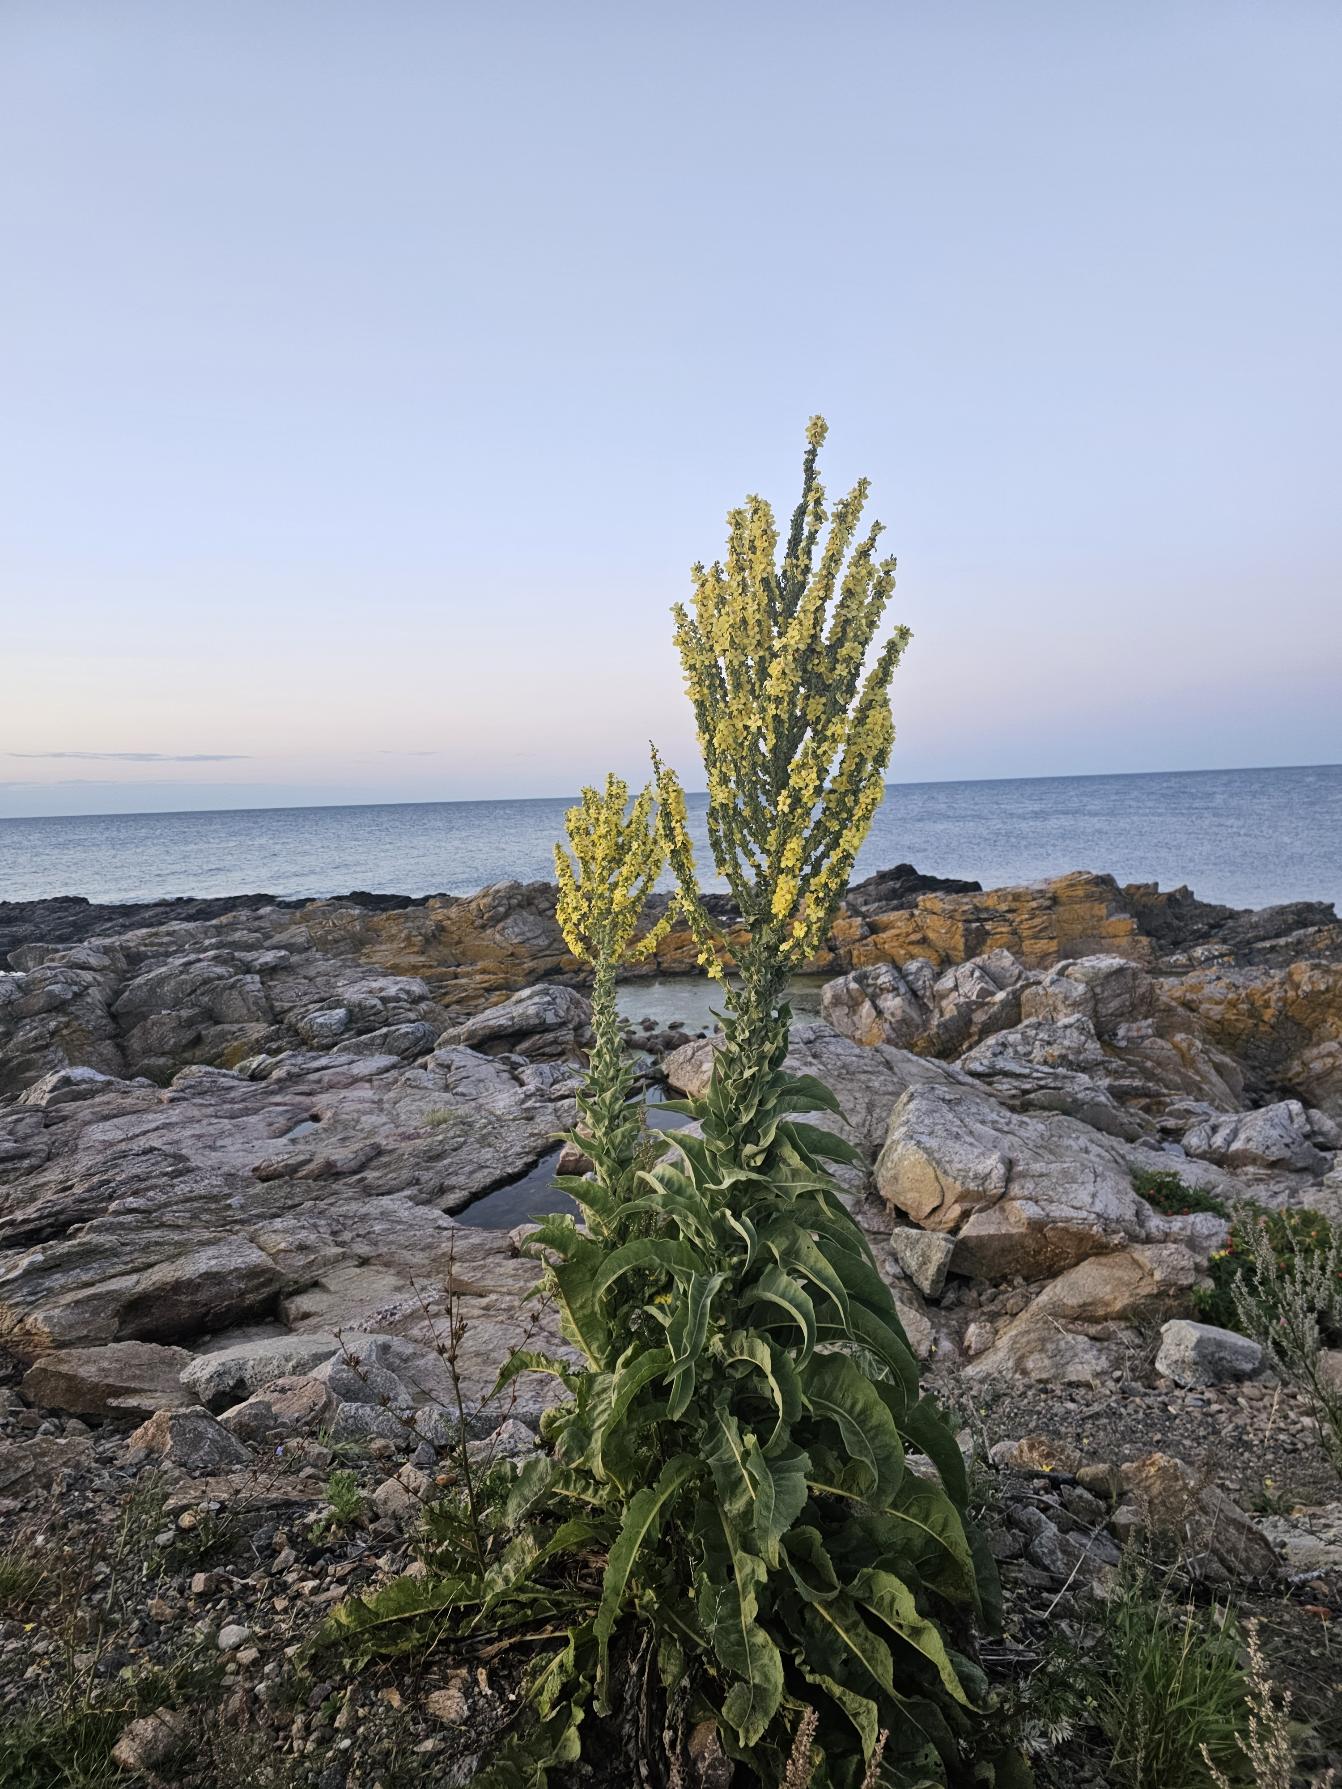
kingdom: Plantae
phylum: Tracheophyta
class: Magnoliopsida
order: Lamiales
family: Scrophulariaceae
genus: Verbascum
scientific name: Verbascum speciosum
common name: Kandelaber-kongelys
